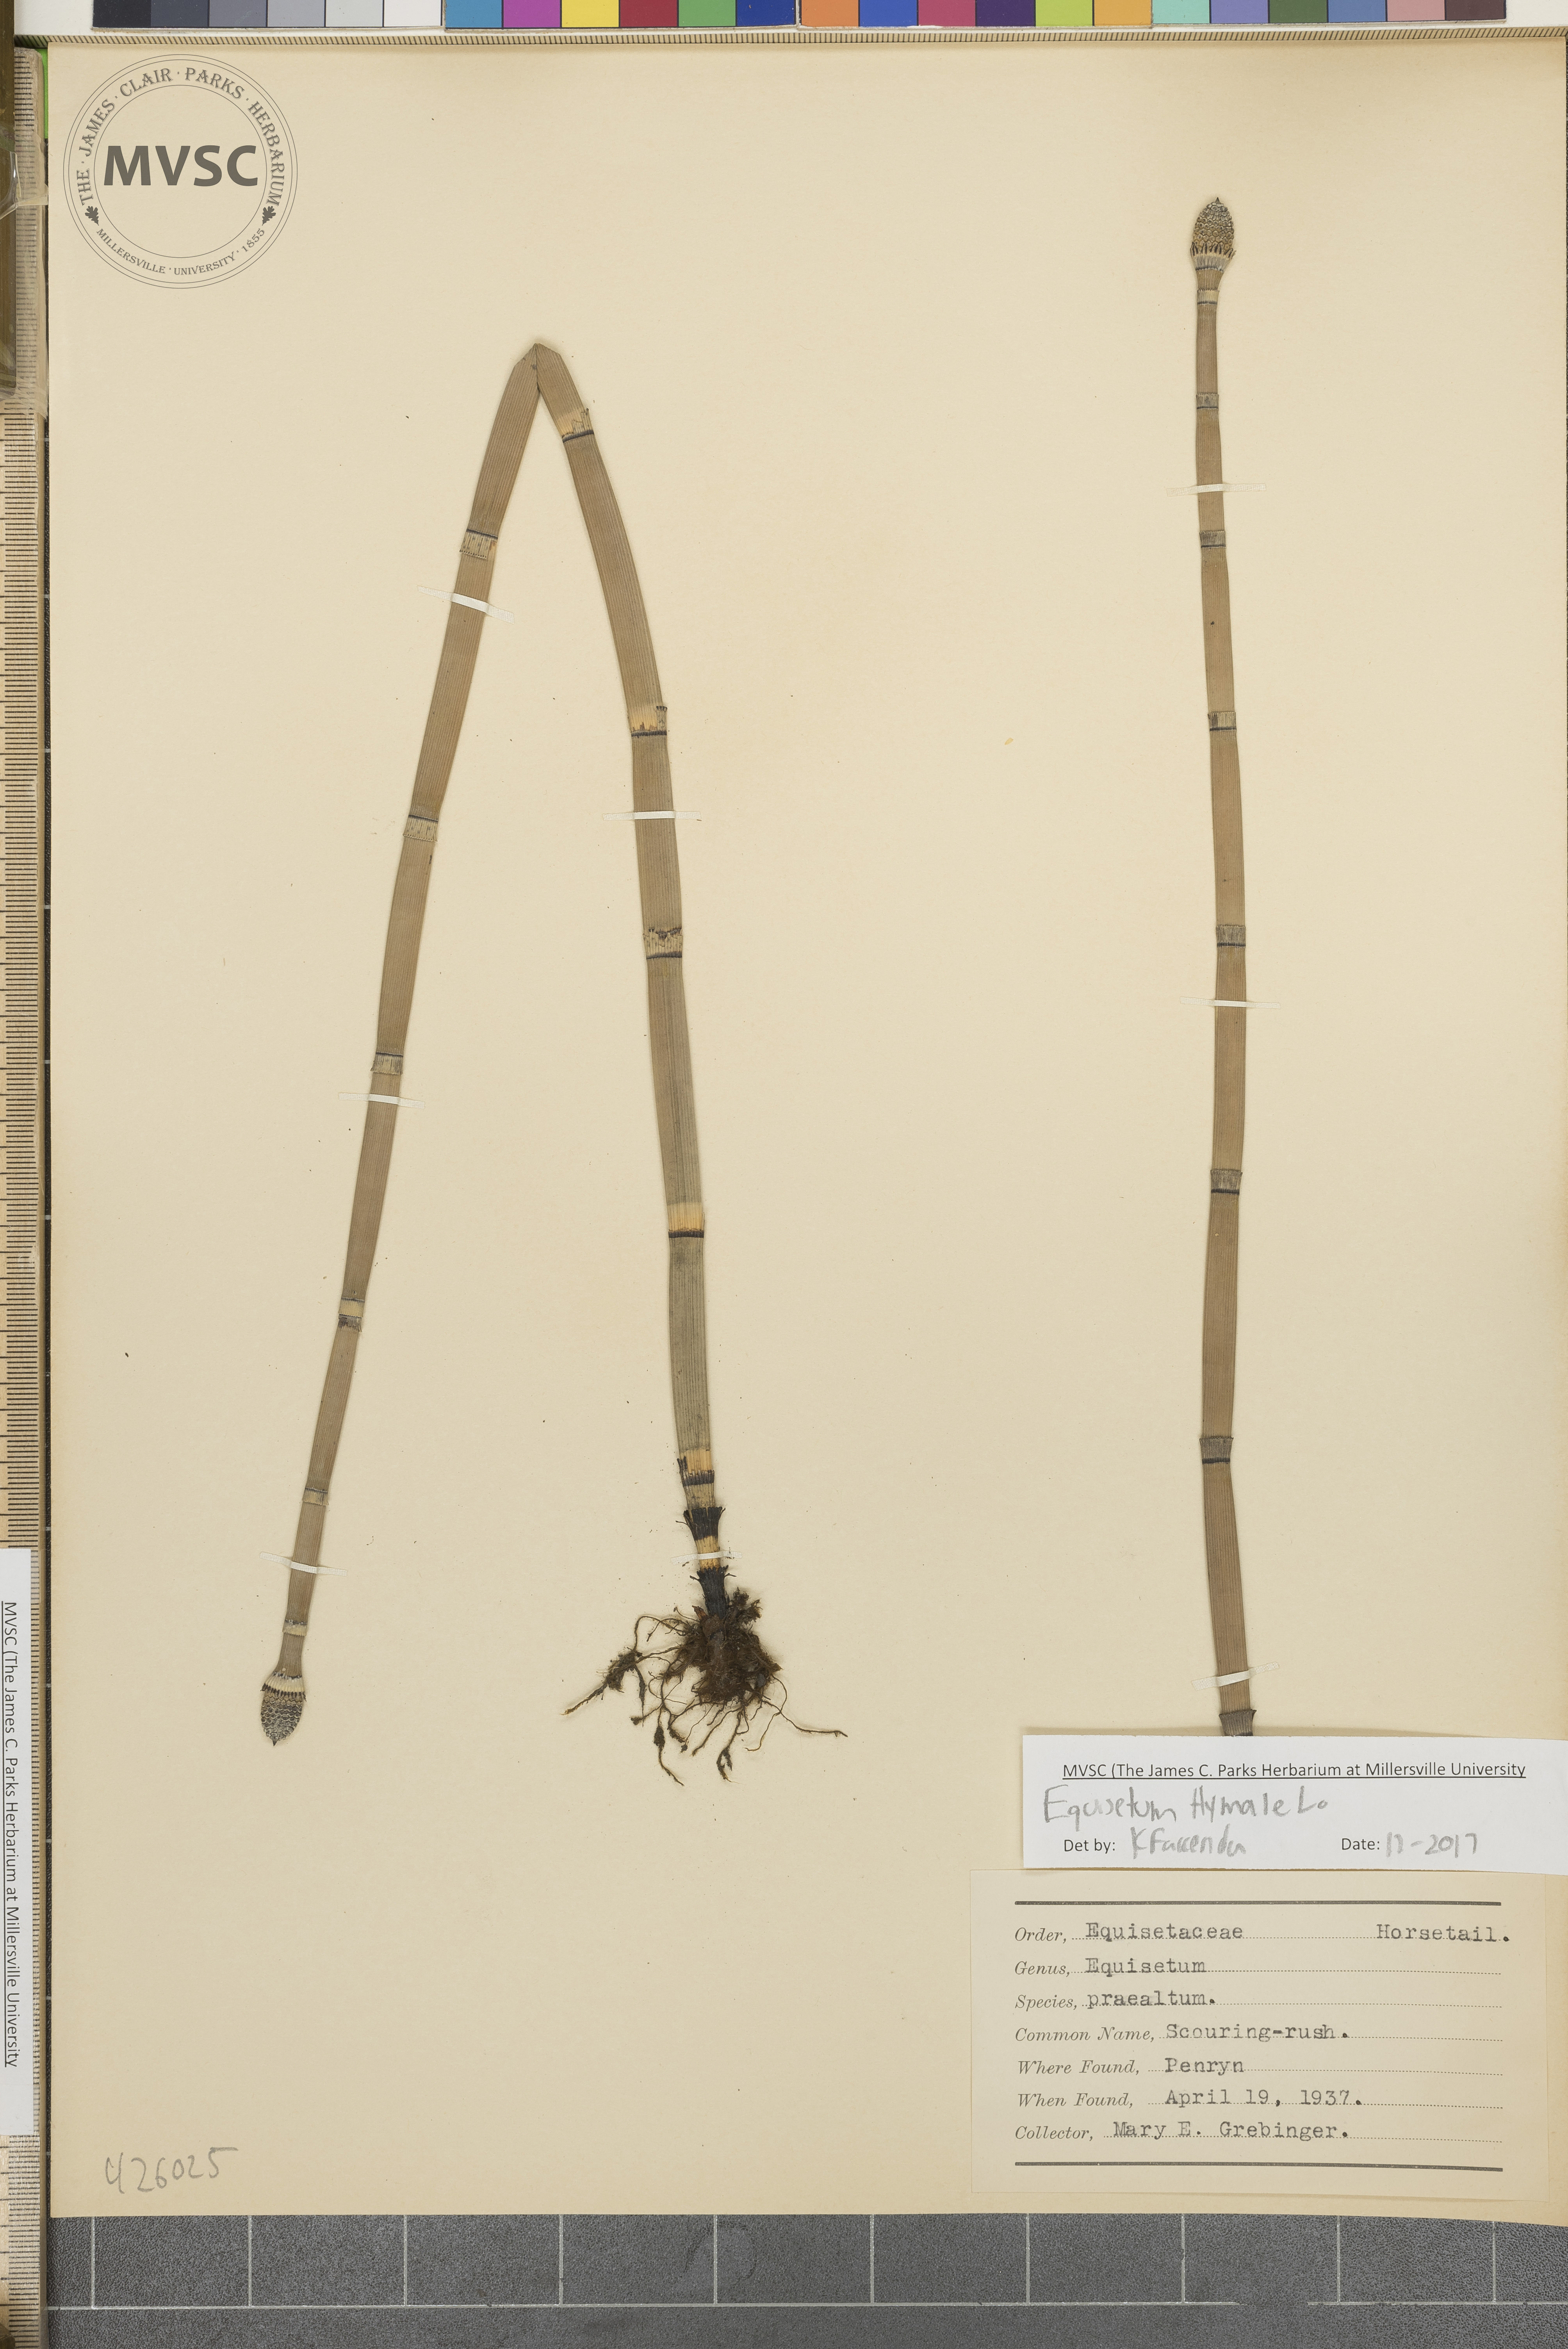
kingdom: Plantae
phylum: Tracheophyta
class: Polypodiopsida
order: Equisetales
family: Equisetaceae
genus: Equisetum
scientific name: Equisetum hyemale
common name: Scouring-rush
